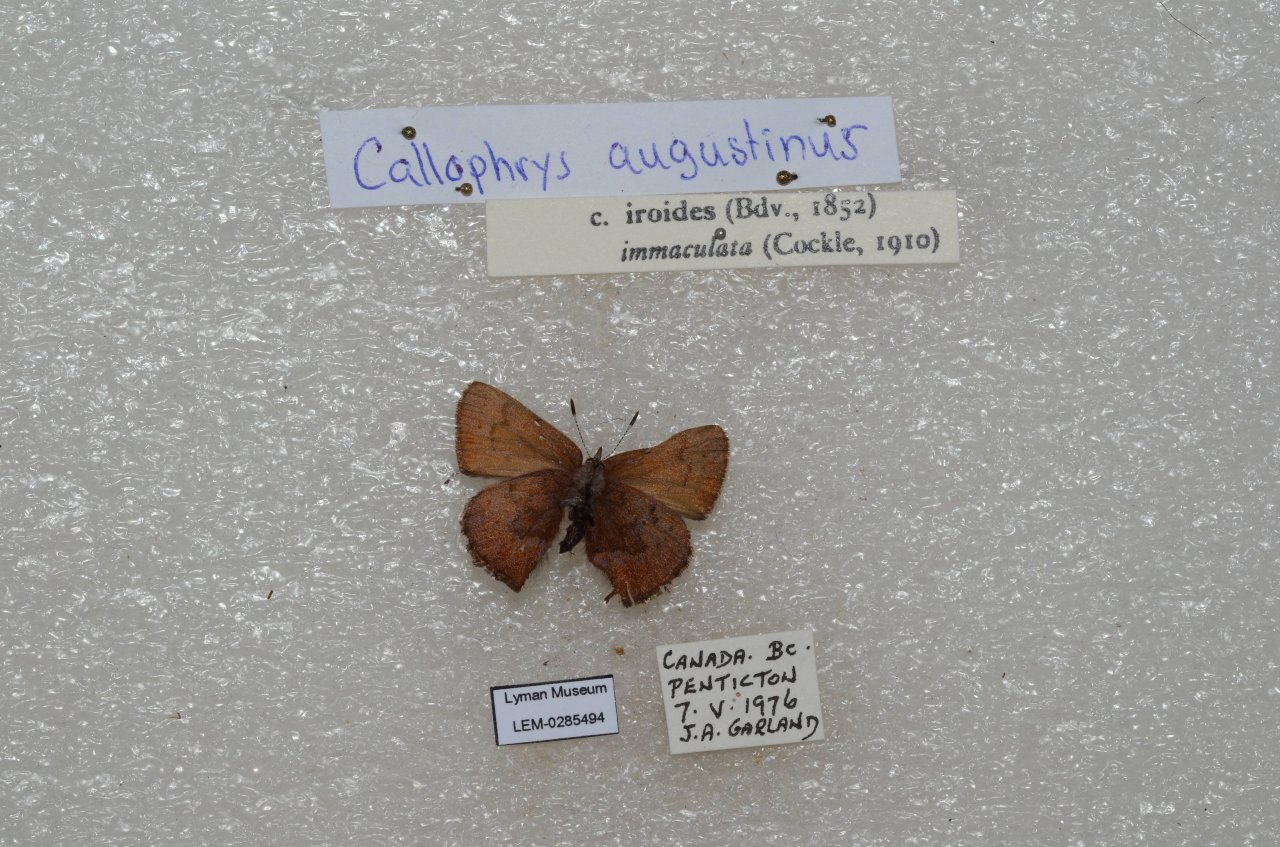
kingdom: Animalia
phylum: Arthropoda
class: Insecta
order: Lepidoptera
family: Lycaenidae
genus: Incisalia
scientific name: Incisalia irioides
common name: Brown Elfin
